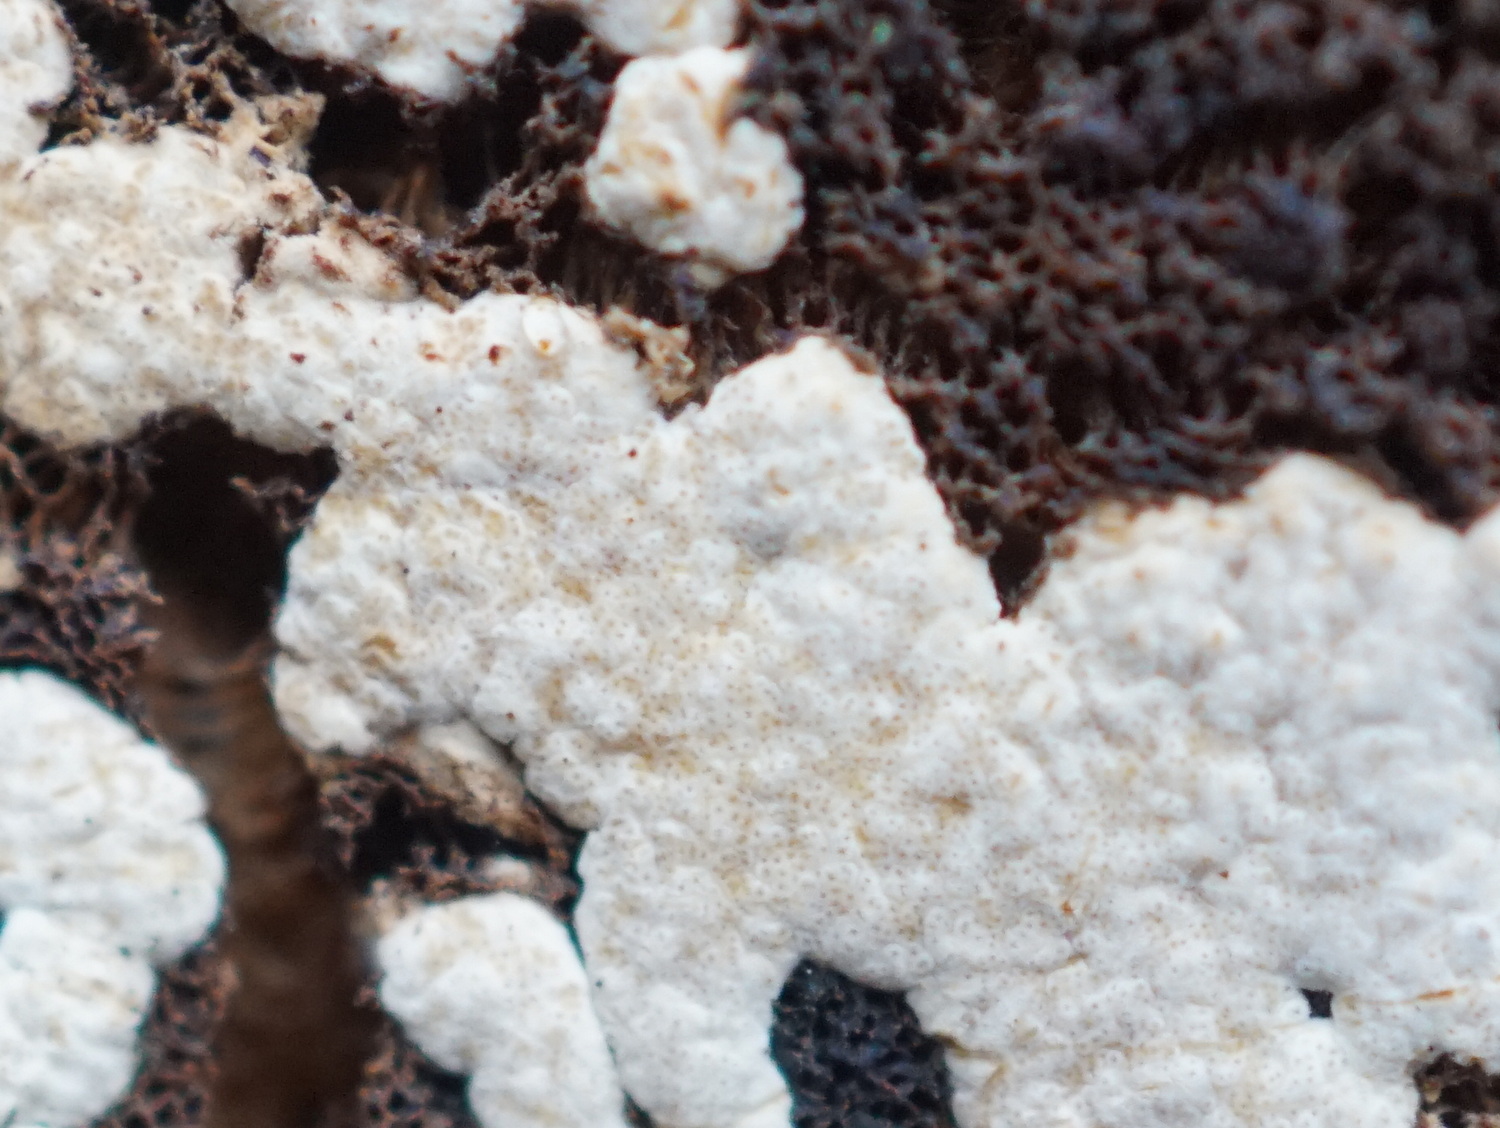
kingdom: Fungi
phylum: Ascomycota
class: Sordariomycetes
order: Hypocreales
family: Hypocreaceae
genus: Trichoderma
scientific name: Trichoderma pulvinatum
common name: snyltende kødkerne
